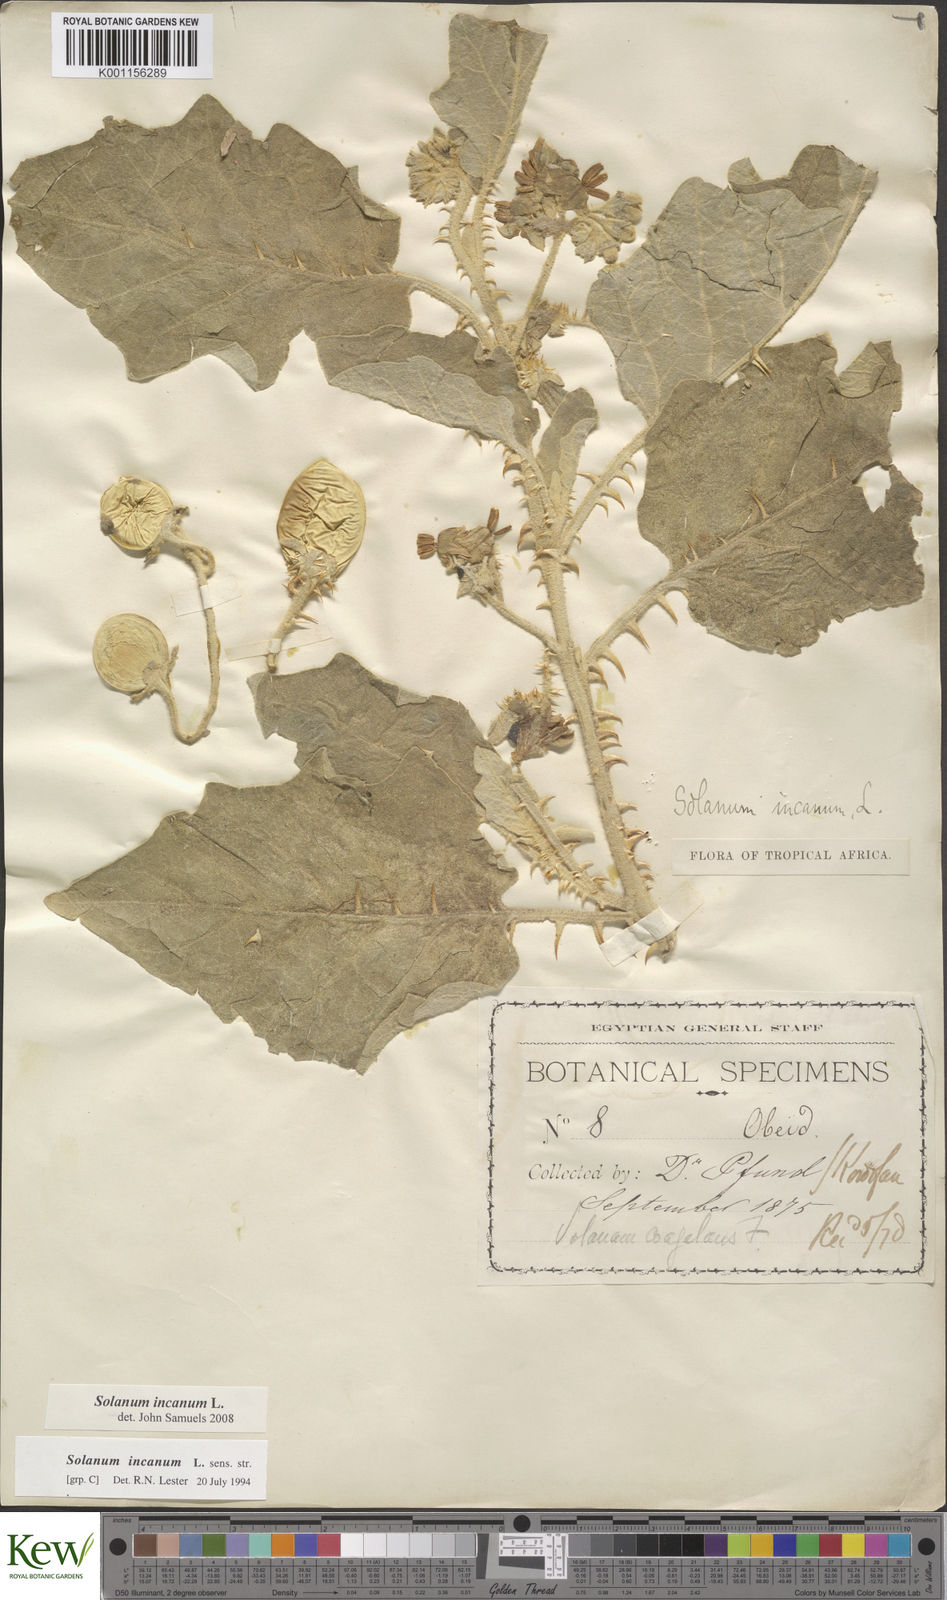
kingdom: Plantae
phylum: Tracheophyta
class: Magnoliopsida
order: Solanales
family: Solanaceae
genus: Solanum
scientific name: Solanum incanum
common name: Bitter apple
